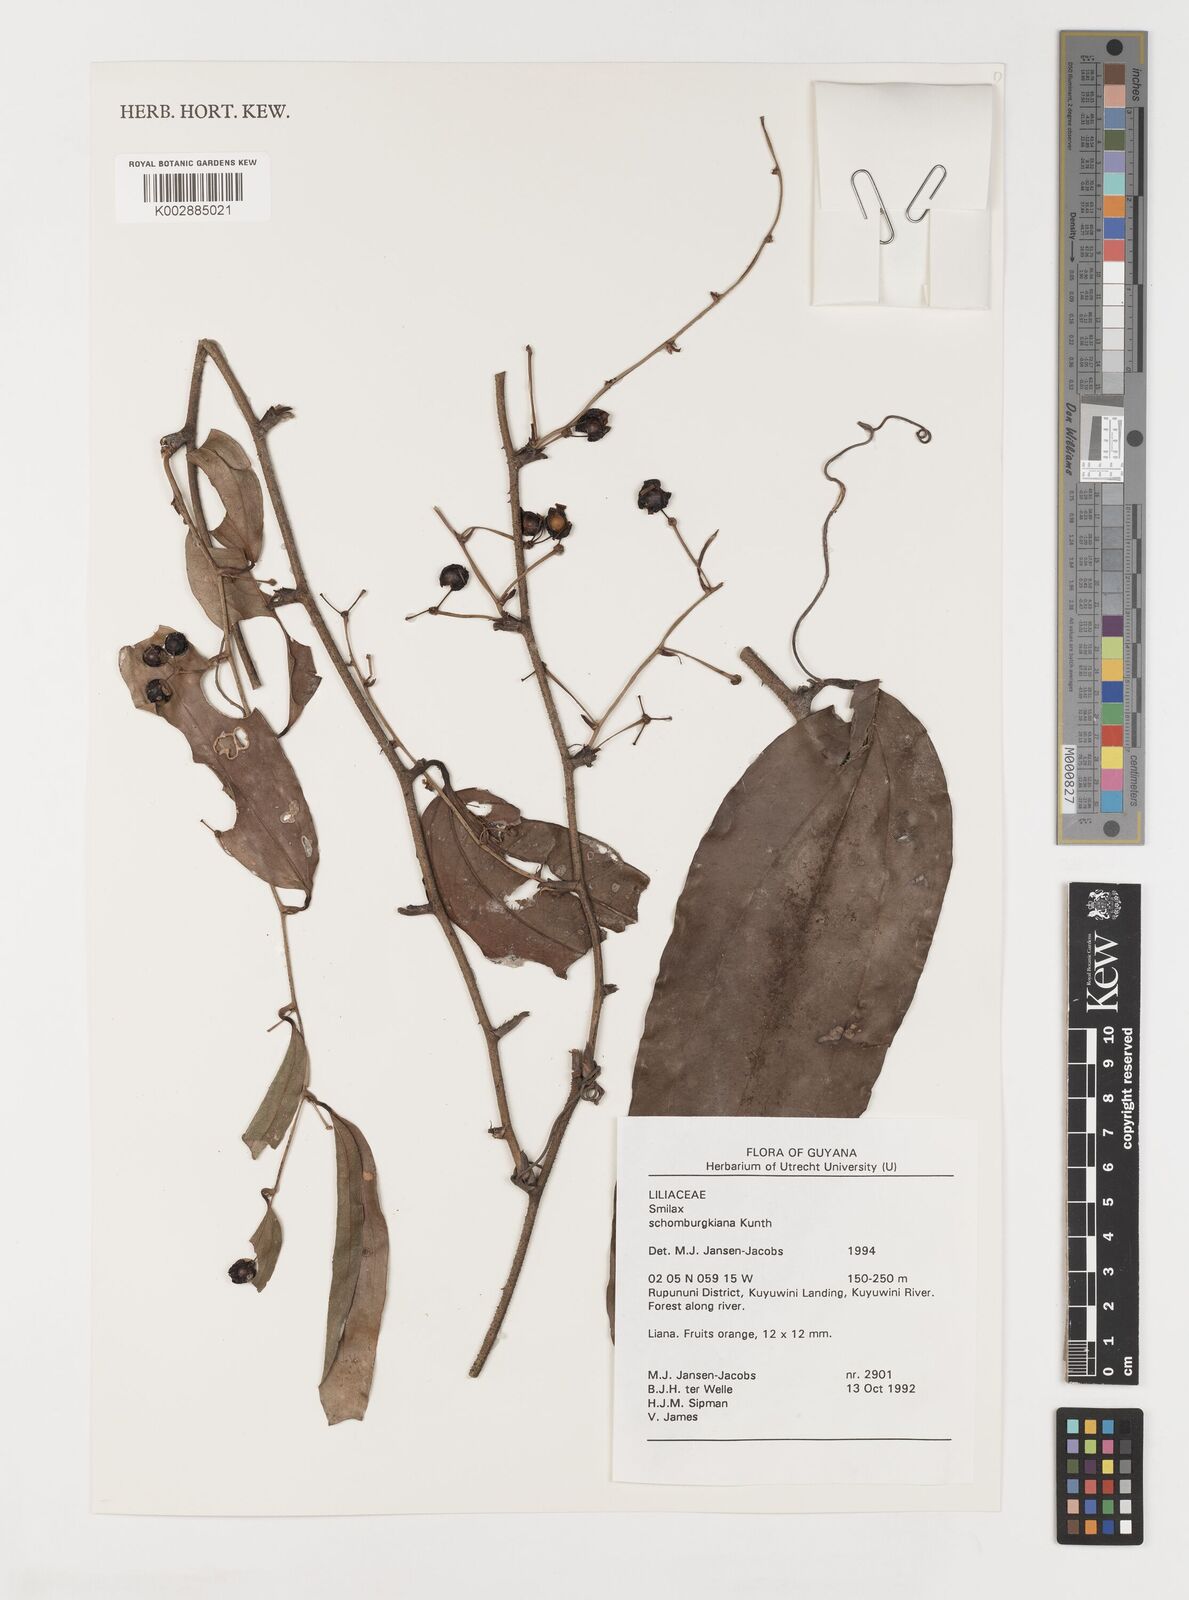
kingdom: Plantae
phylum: Tracheophyta
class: Liliopsida
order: Liliales
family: Smilacaceae
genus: Smilax
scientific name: Smilax schomburgkiana
